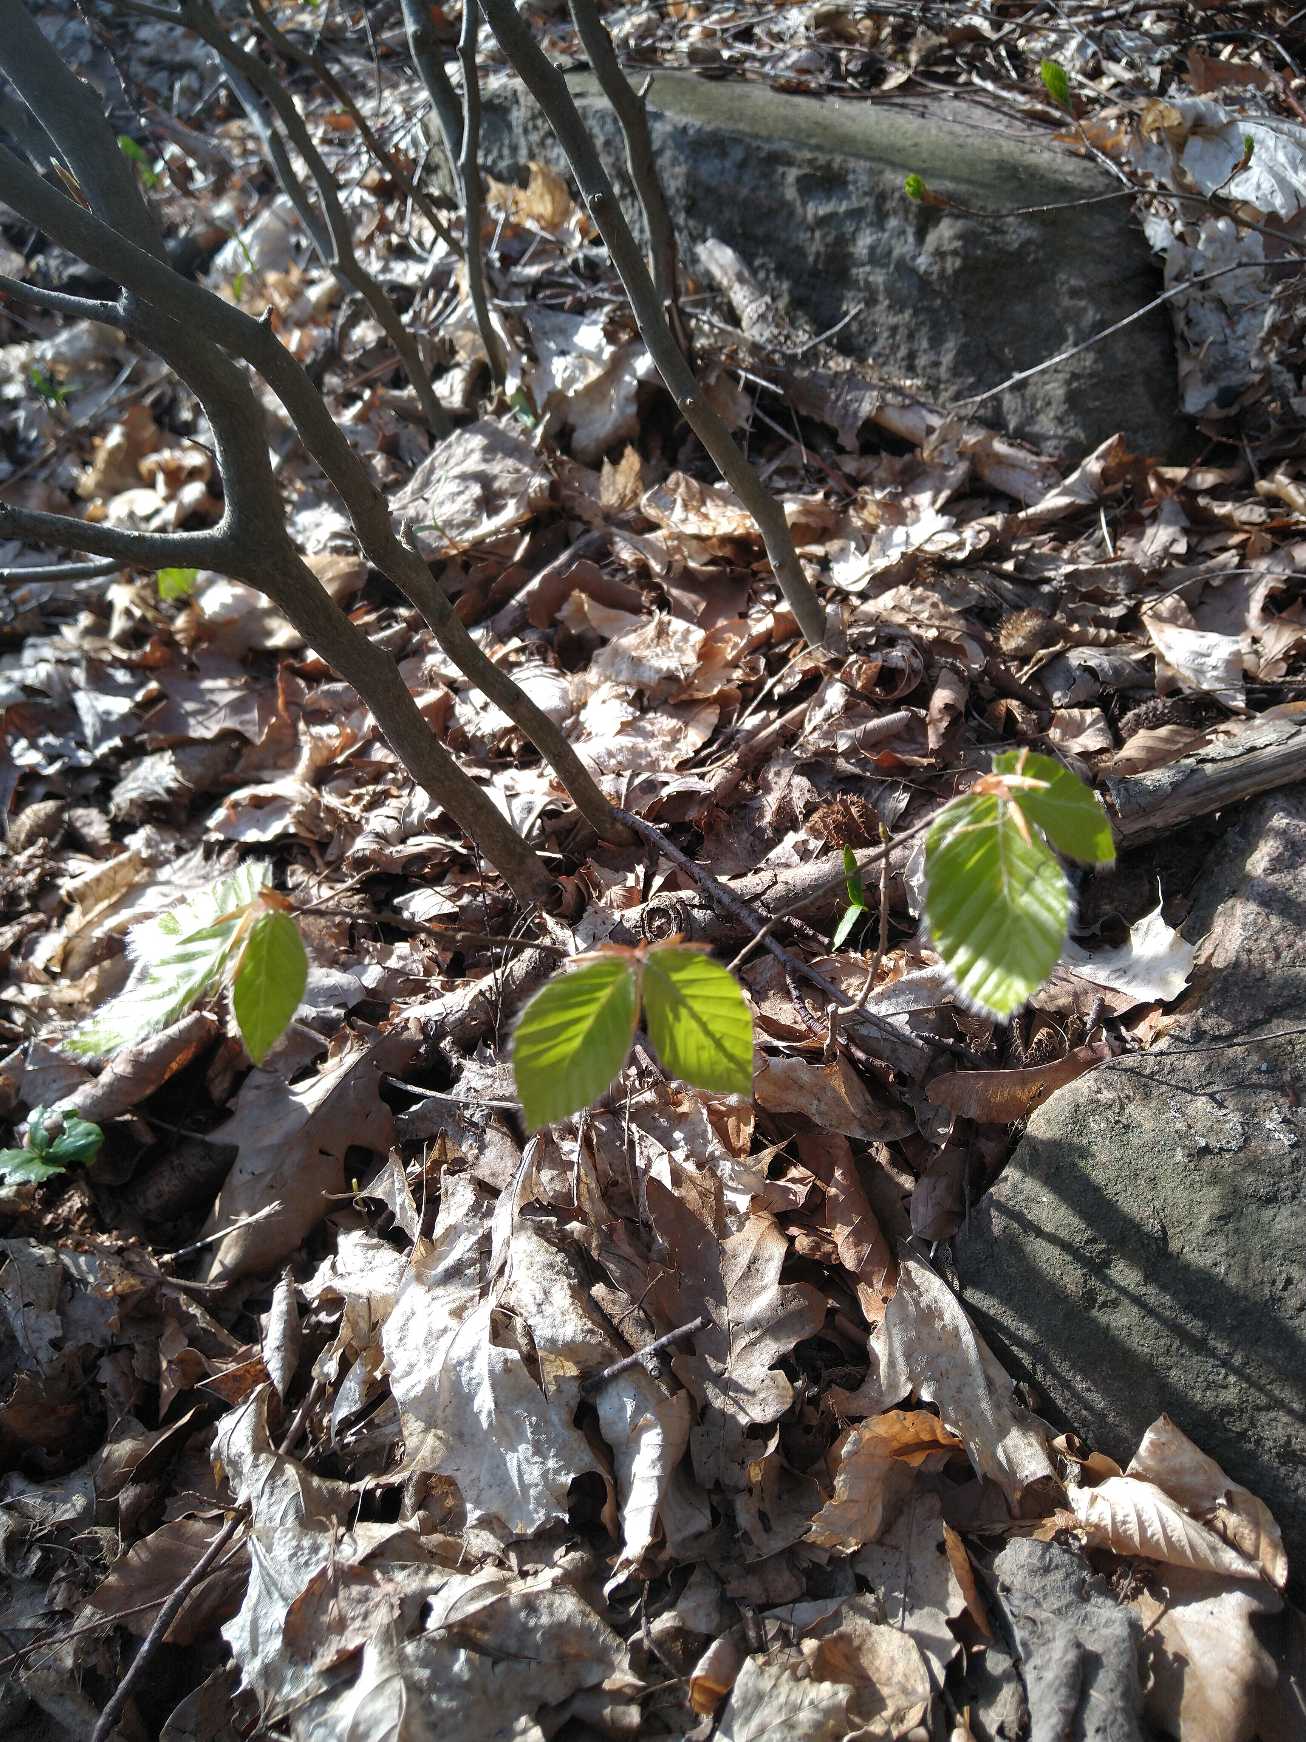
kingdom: Plantae
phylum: Tracheophyta
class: Magnoliopsida
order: Fagales
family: Fagaceae
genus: Fagus
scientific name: Fagus sylvatica
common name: Bøg
